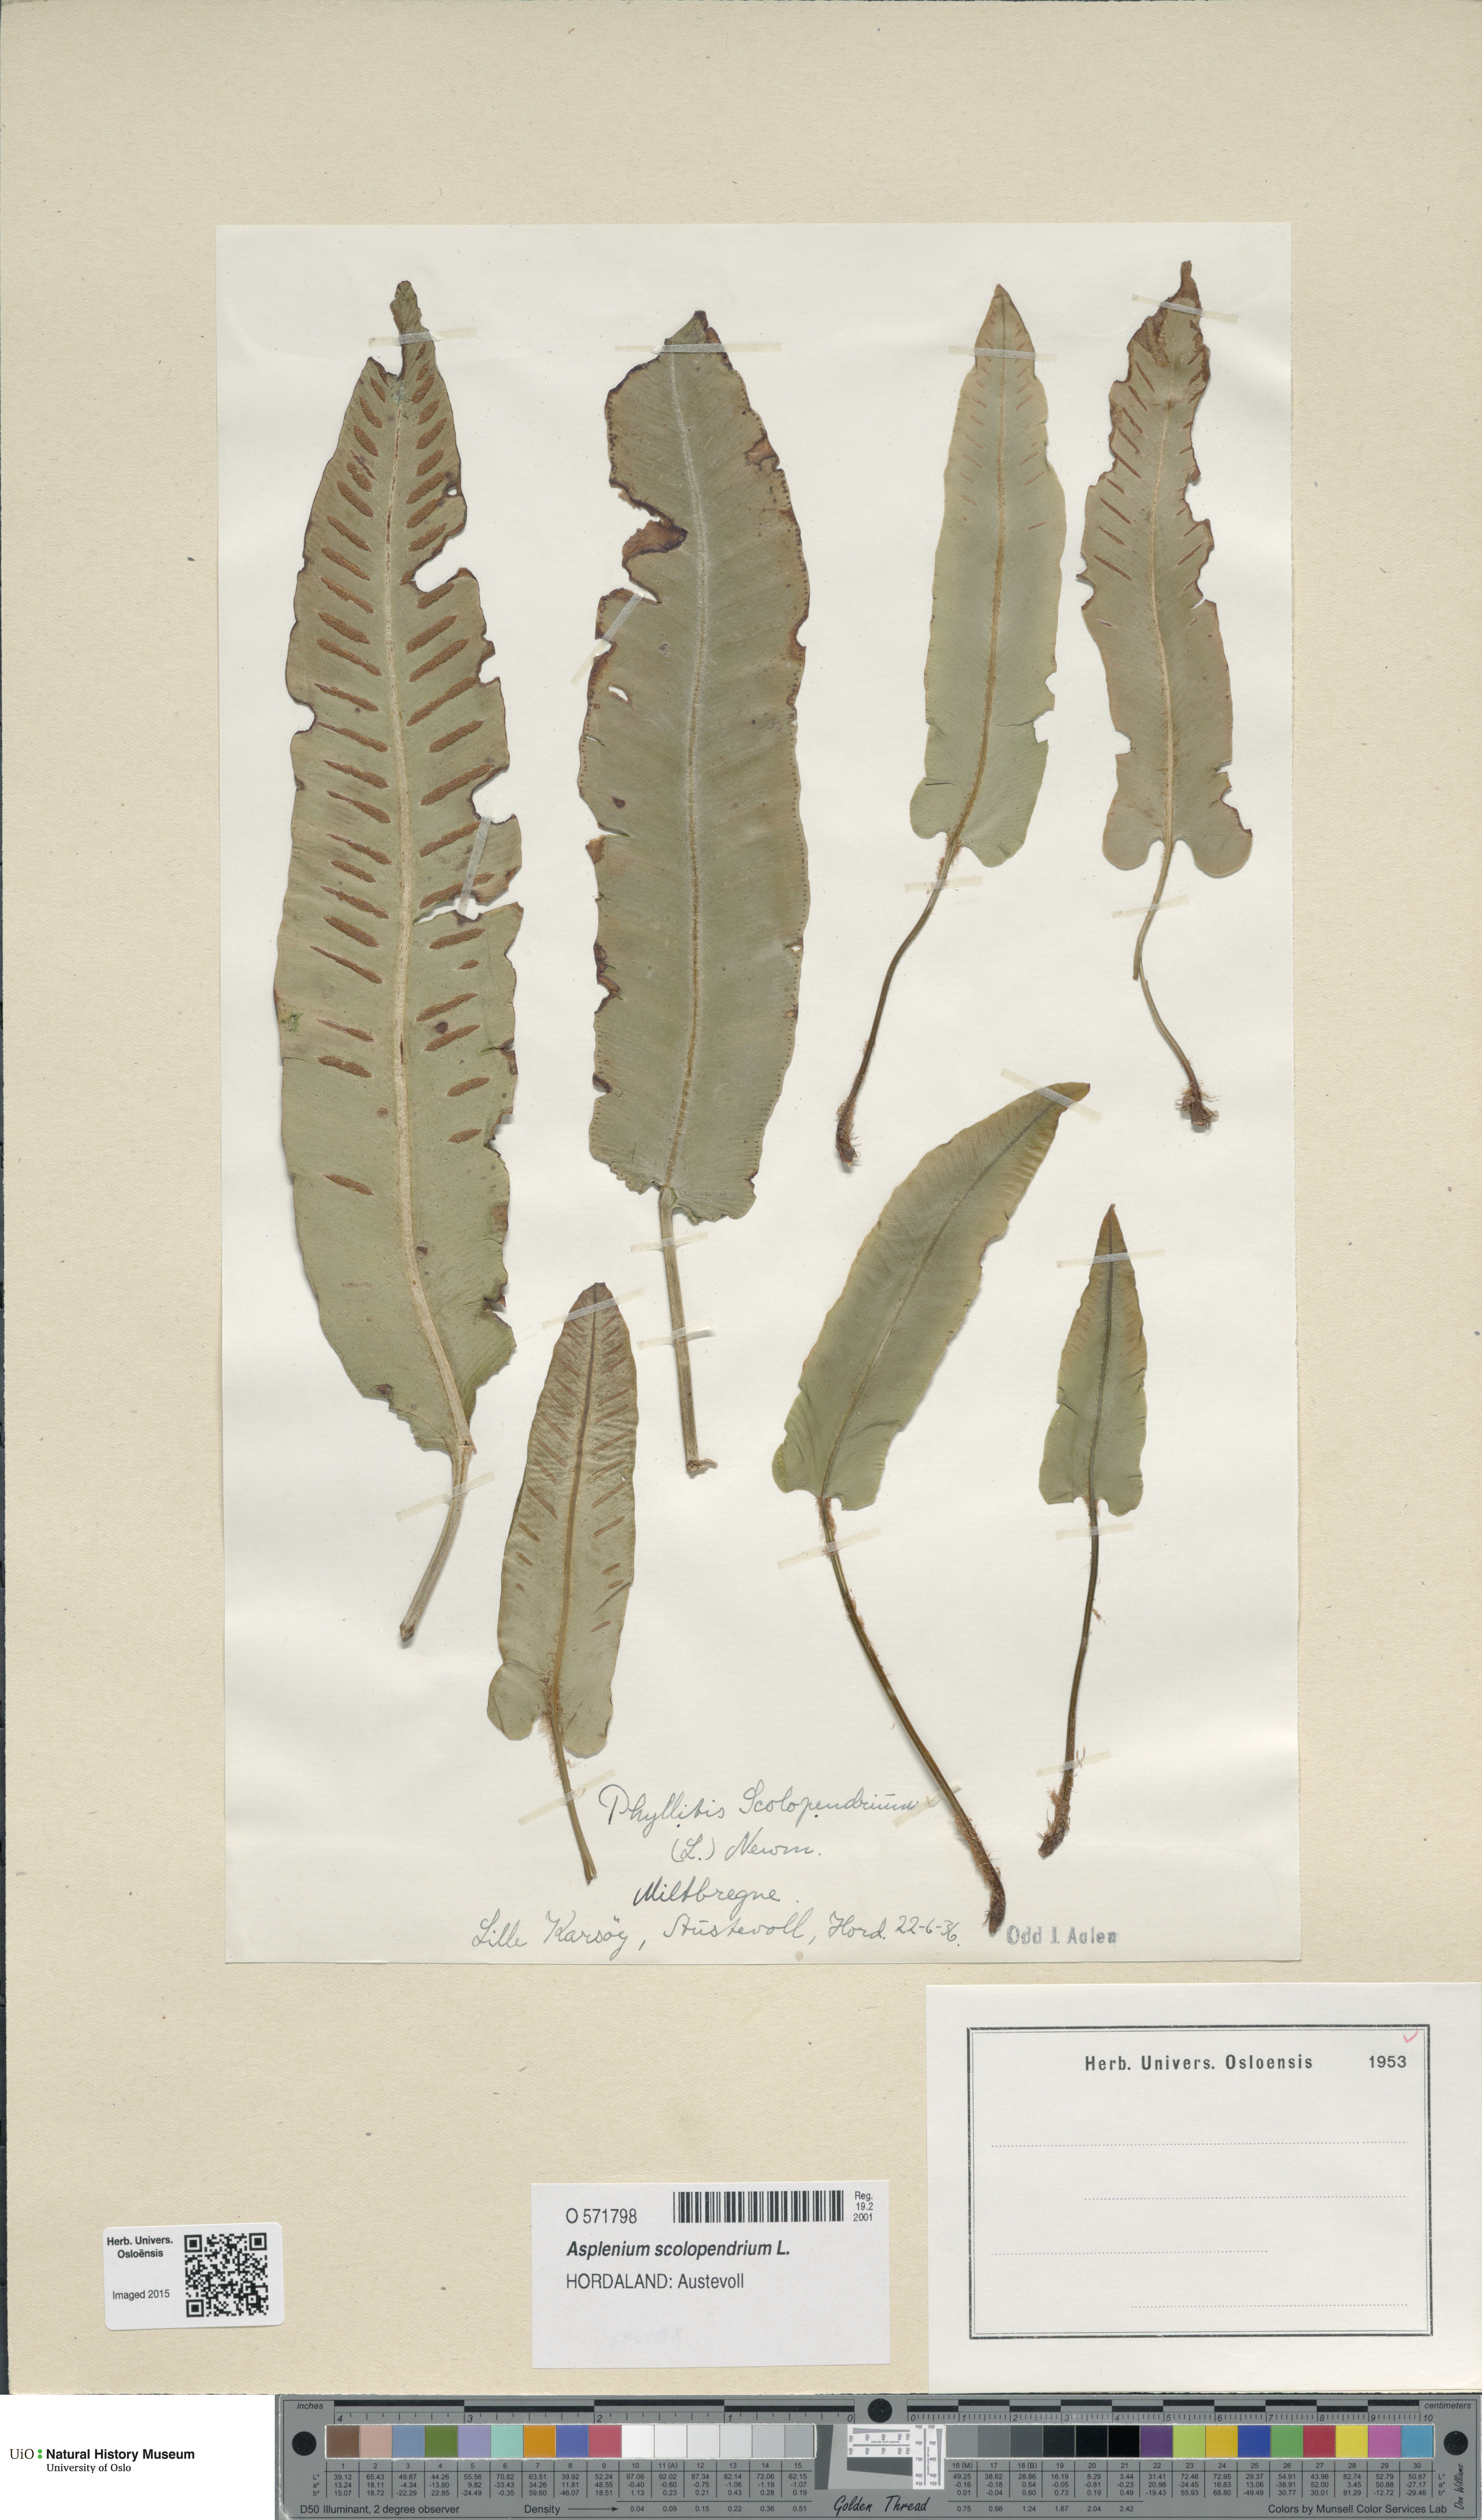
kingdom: Plantae
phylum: Tracheophyta
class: Polypodiopsida
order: Polypodiales
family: Aspleniaceae
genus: Asplenium
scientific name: Asplenium scolopendrium
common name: Hart's-tongue fern
